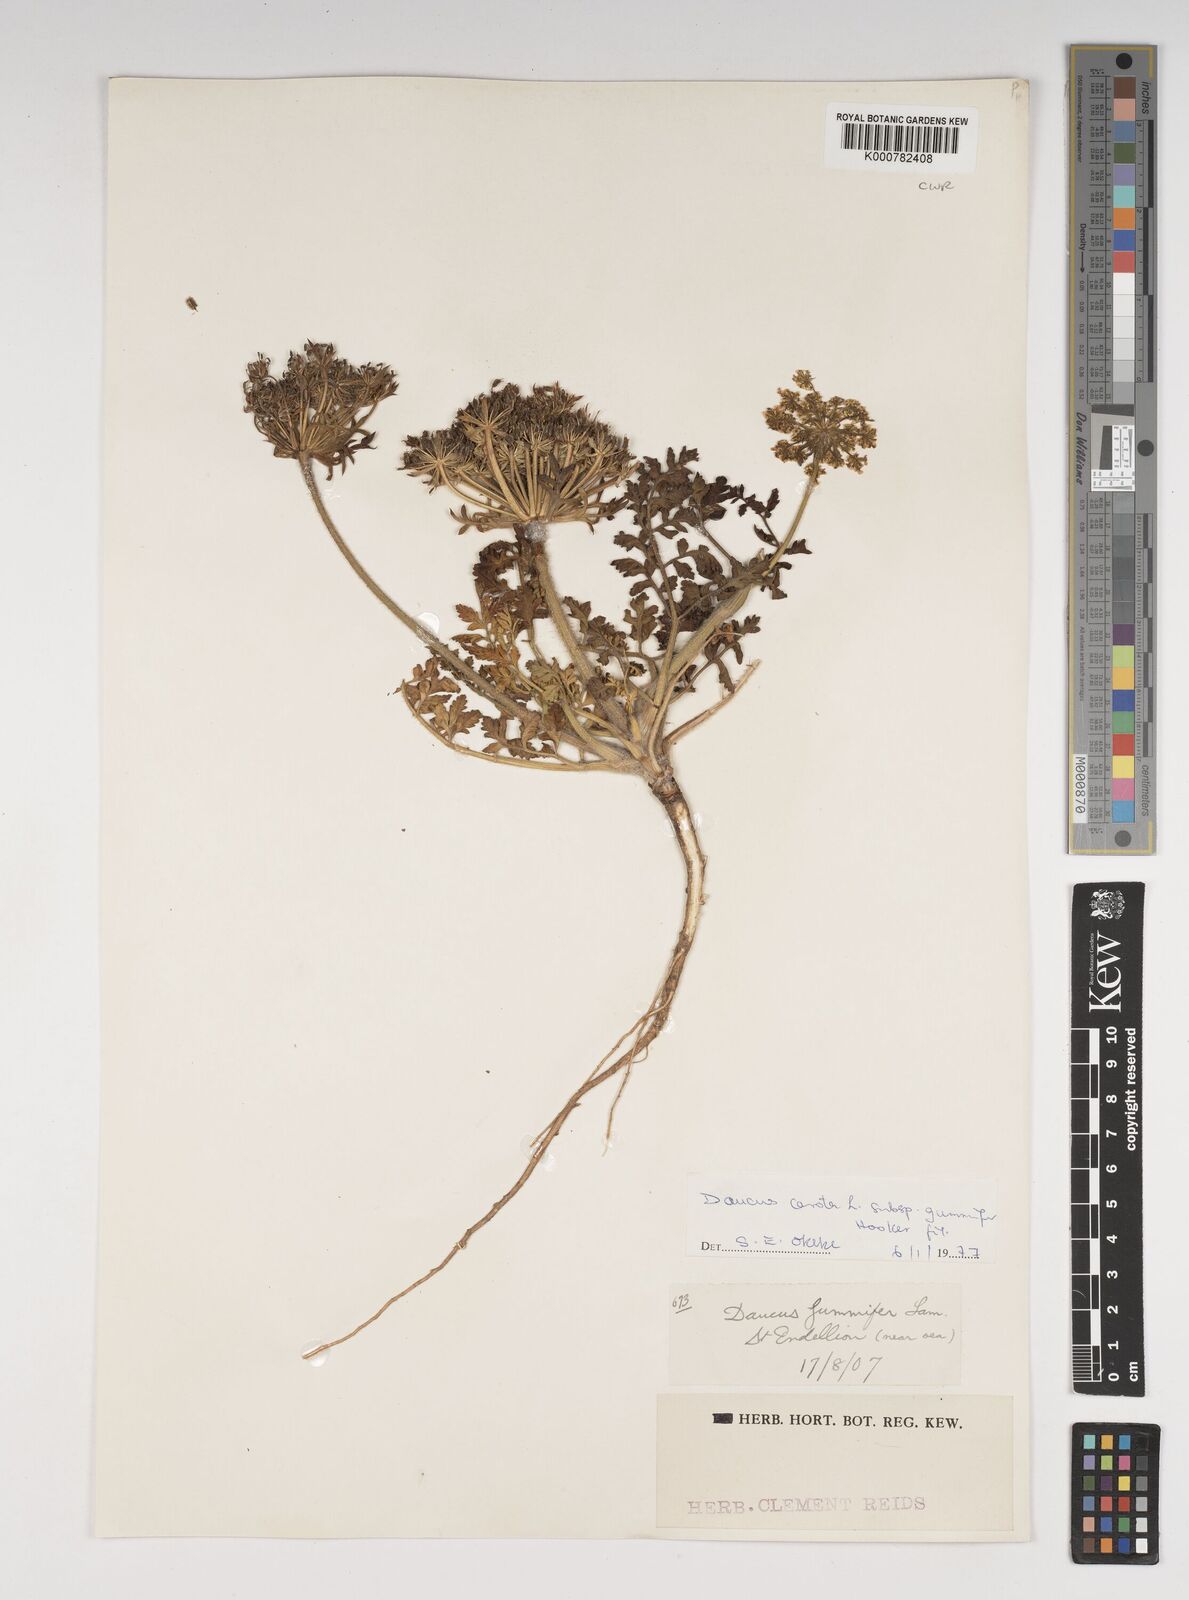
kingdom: Plantae
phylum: Tracheophyta
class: Magnoliopsida
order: Apiales
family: Apiaceae
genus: Daucus
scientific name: Daucus carota
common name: Wild carrot
